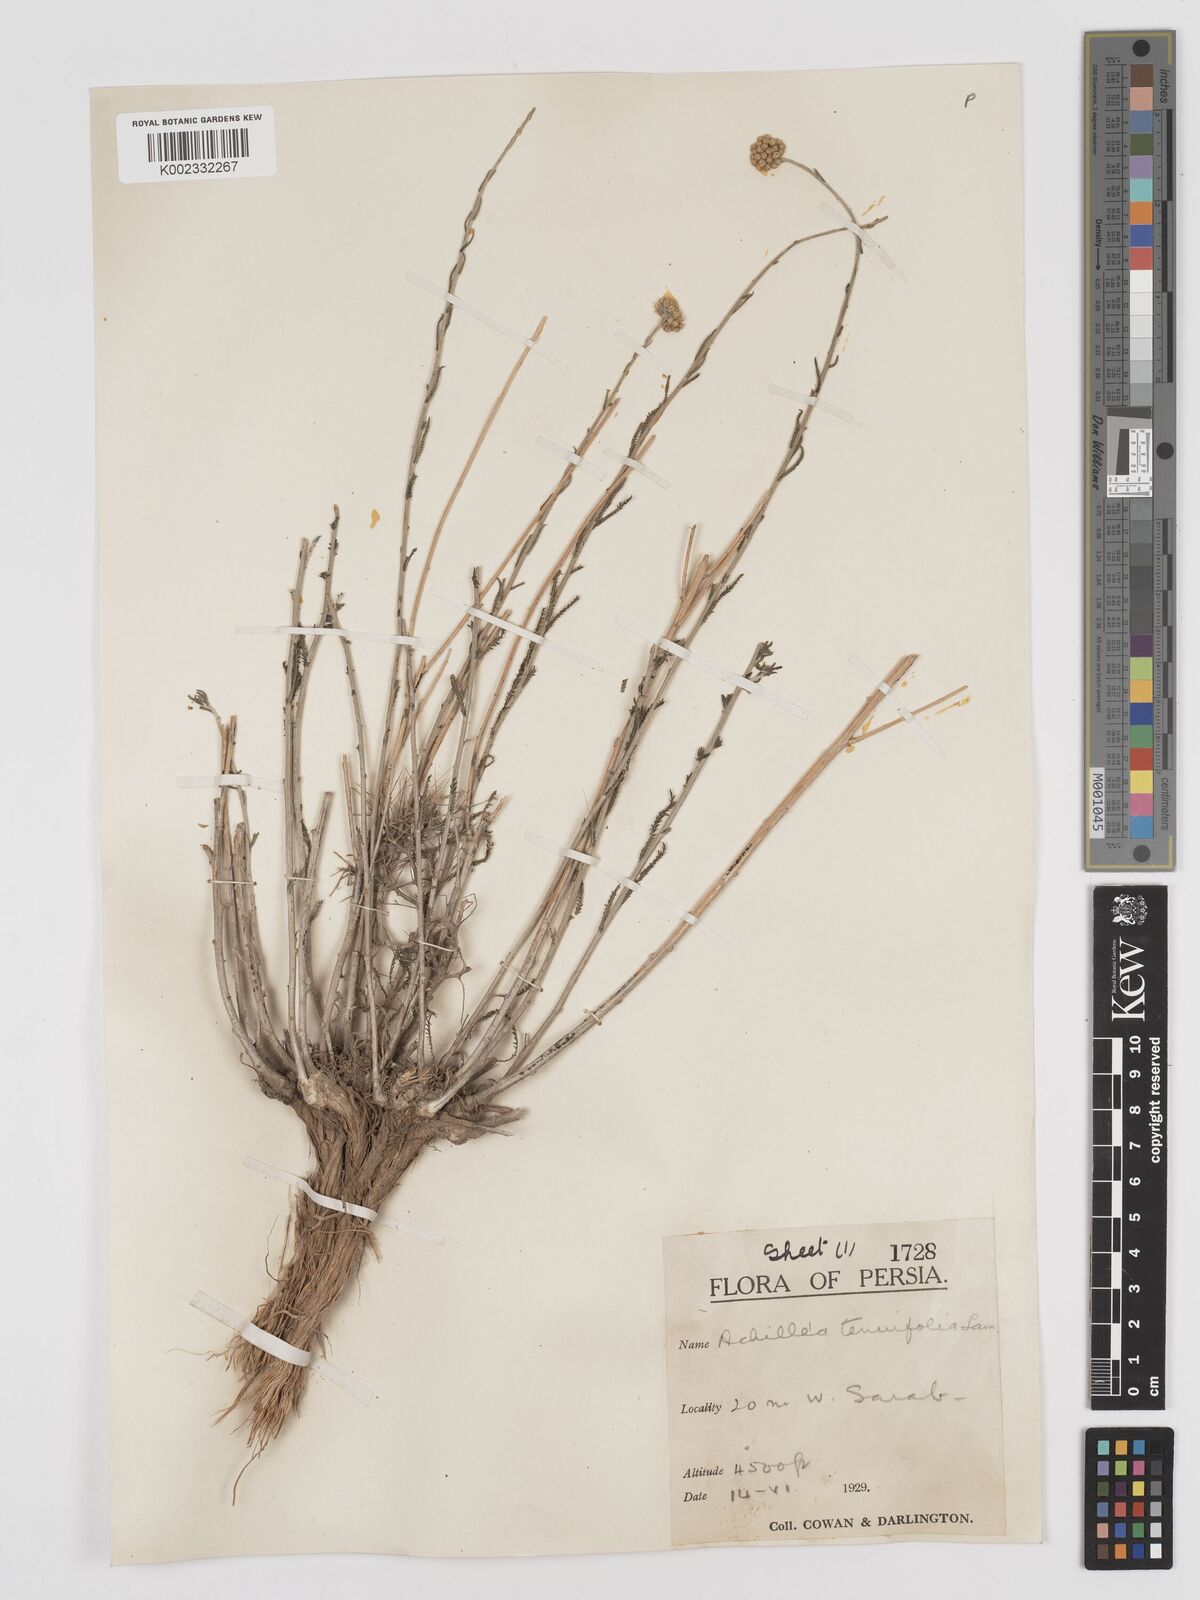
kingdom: Plantae
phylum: Tracheophyta
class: Magnoliopsida
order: Asterales
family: Asteraceae
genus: Achillea
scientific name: Achillea tenuifolia
